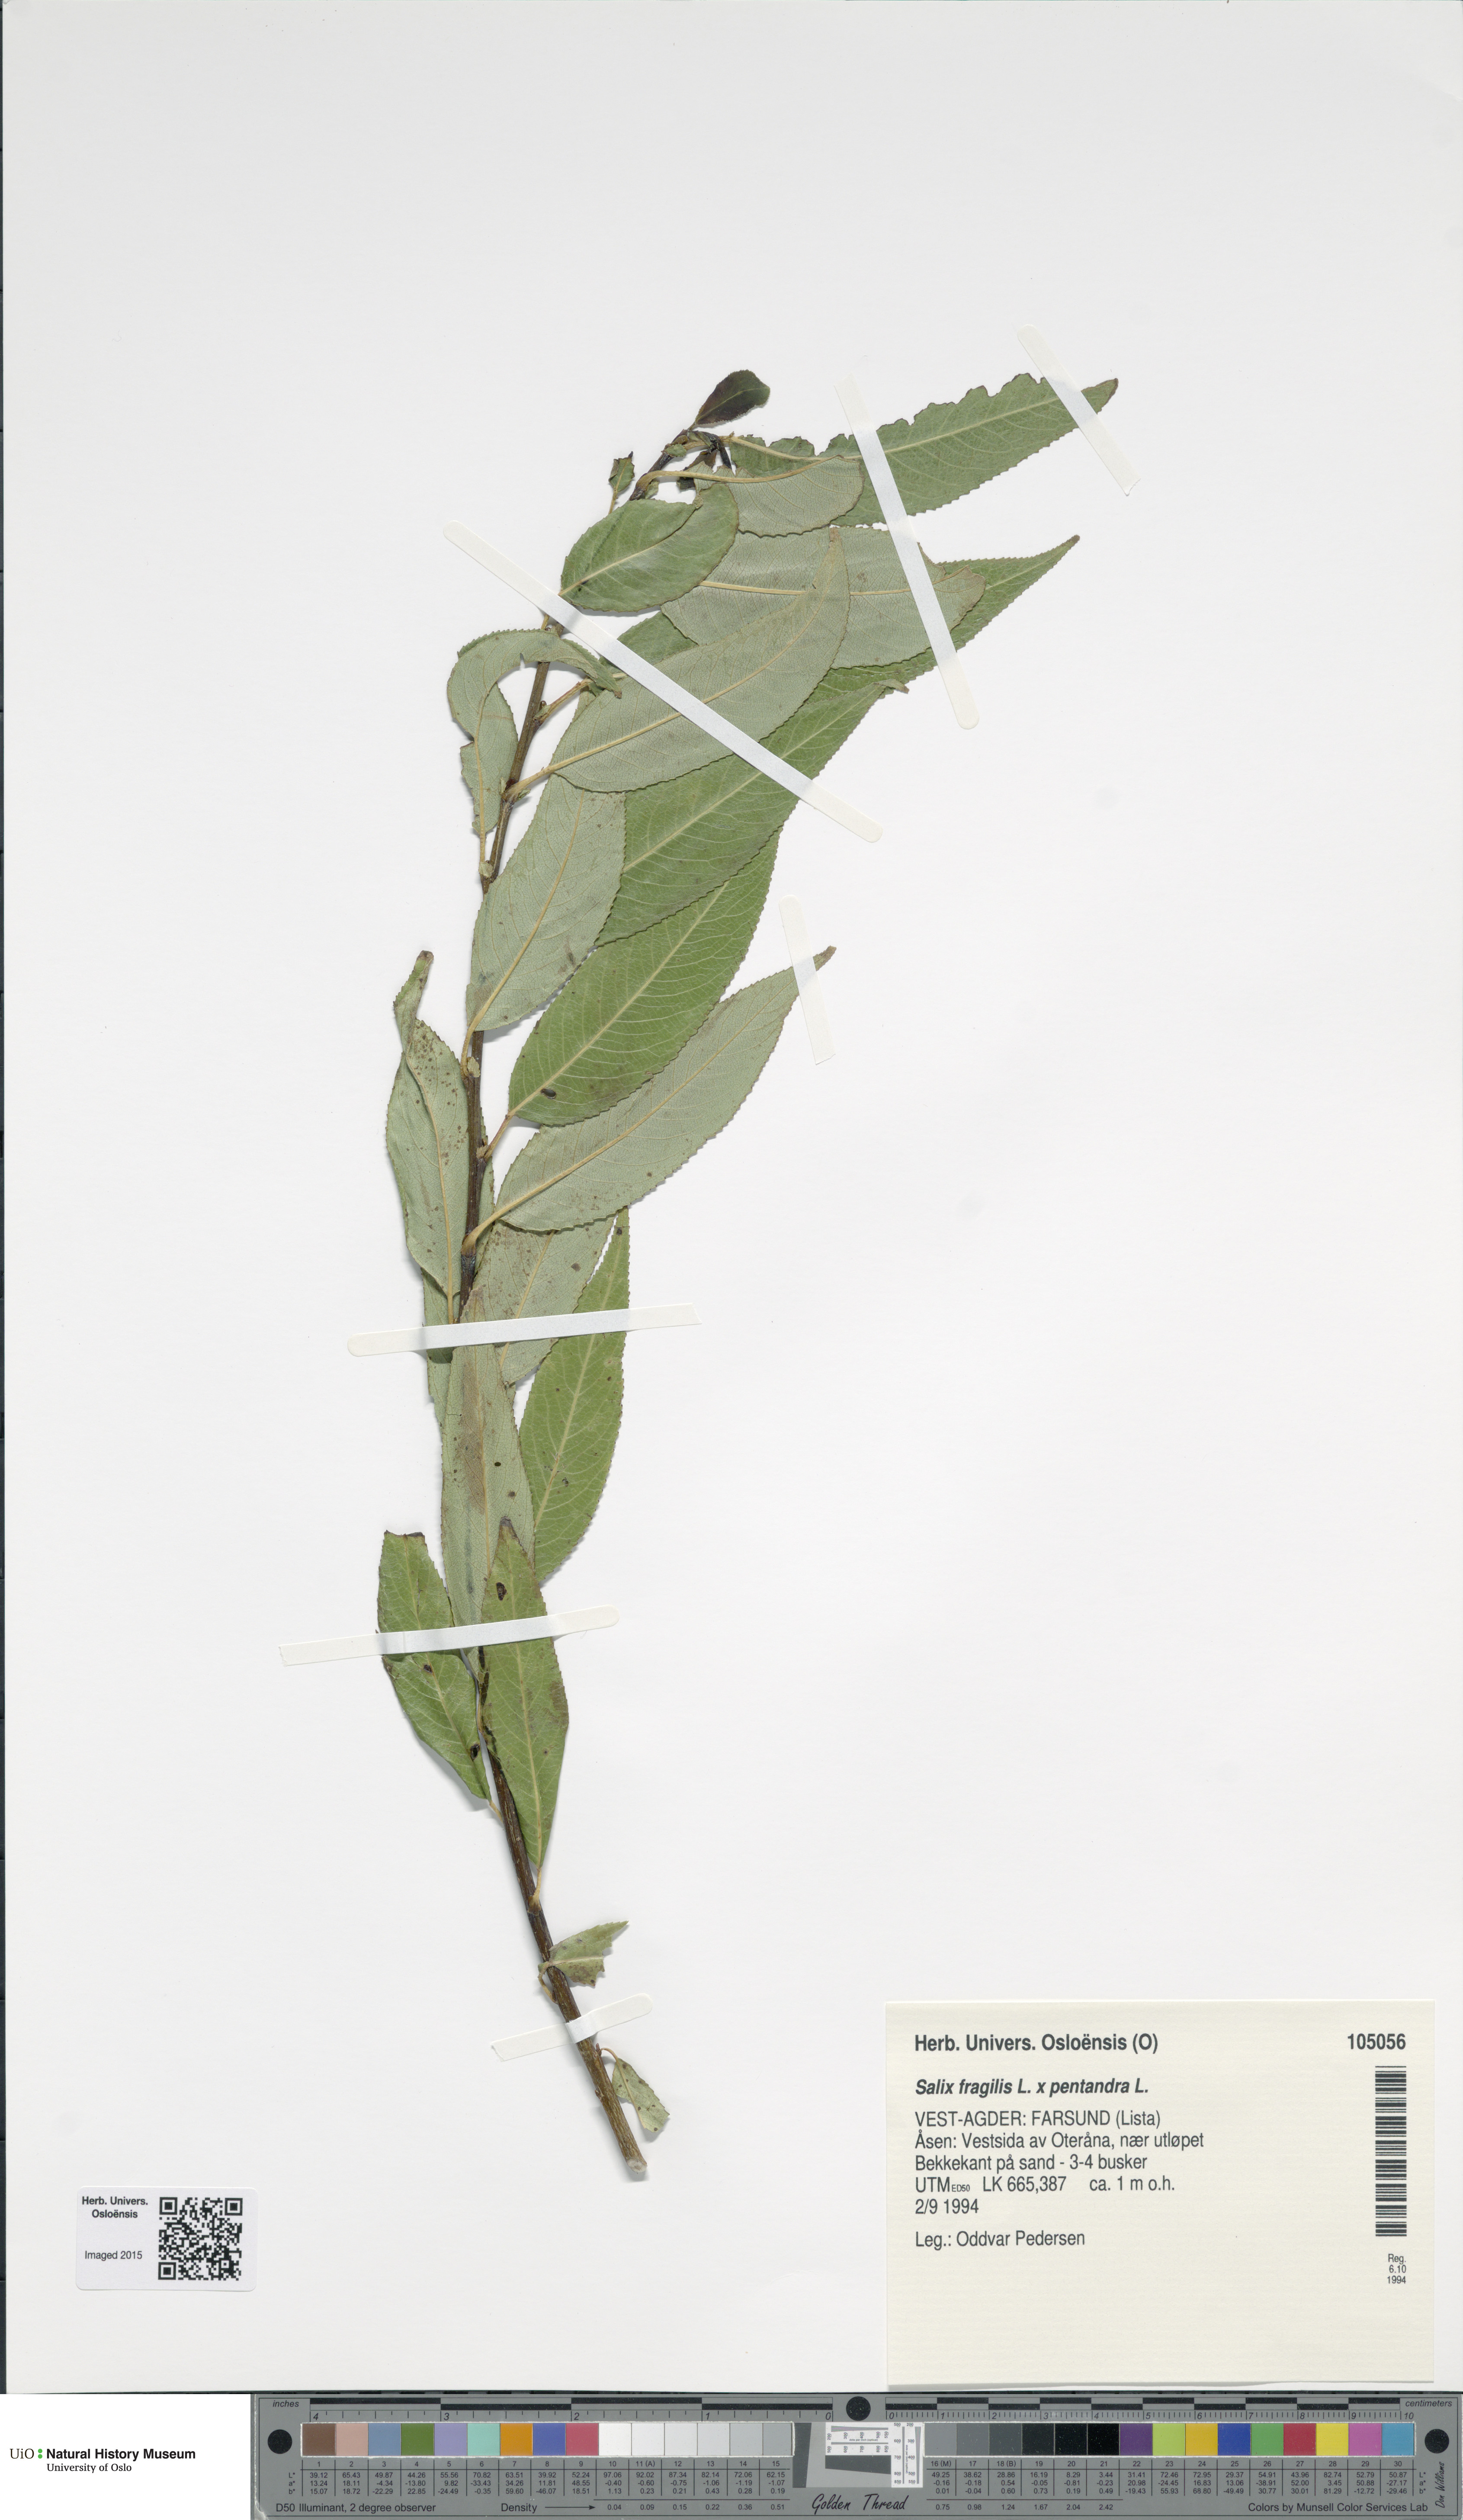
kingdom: Plantae
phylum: Tracheophyta
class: Magnoliopsida
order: Malpighiales
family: Salicaceae
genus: Salix
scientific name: Salix
